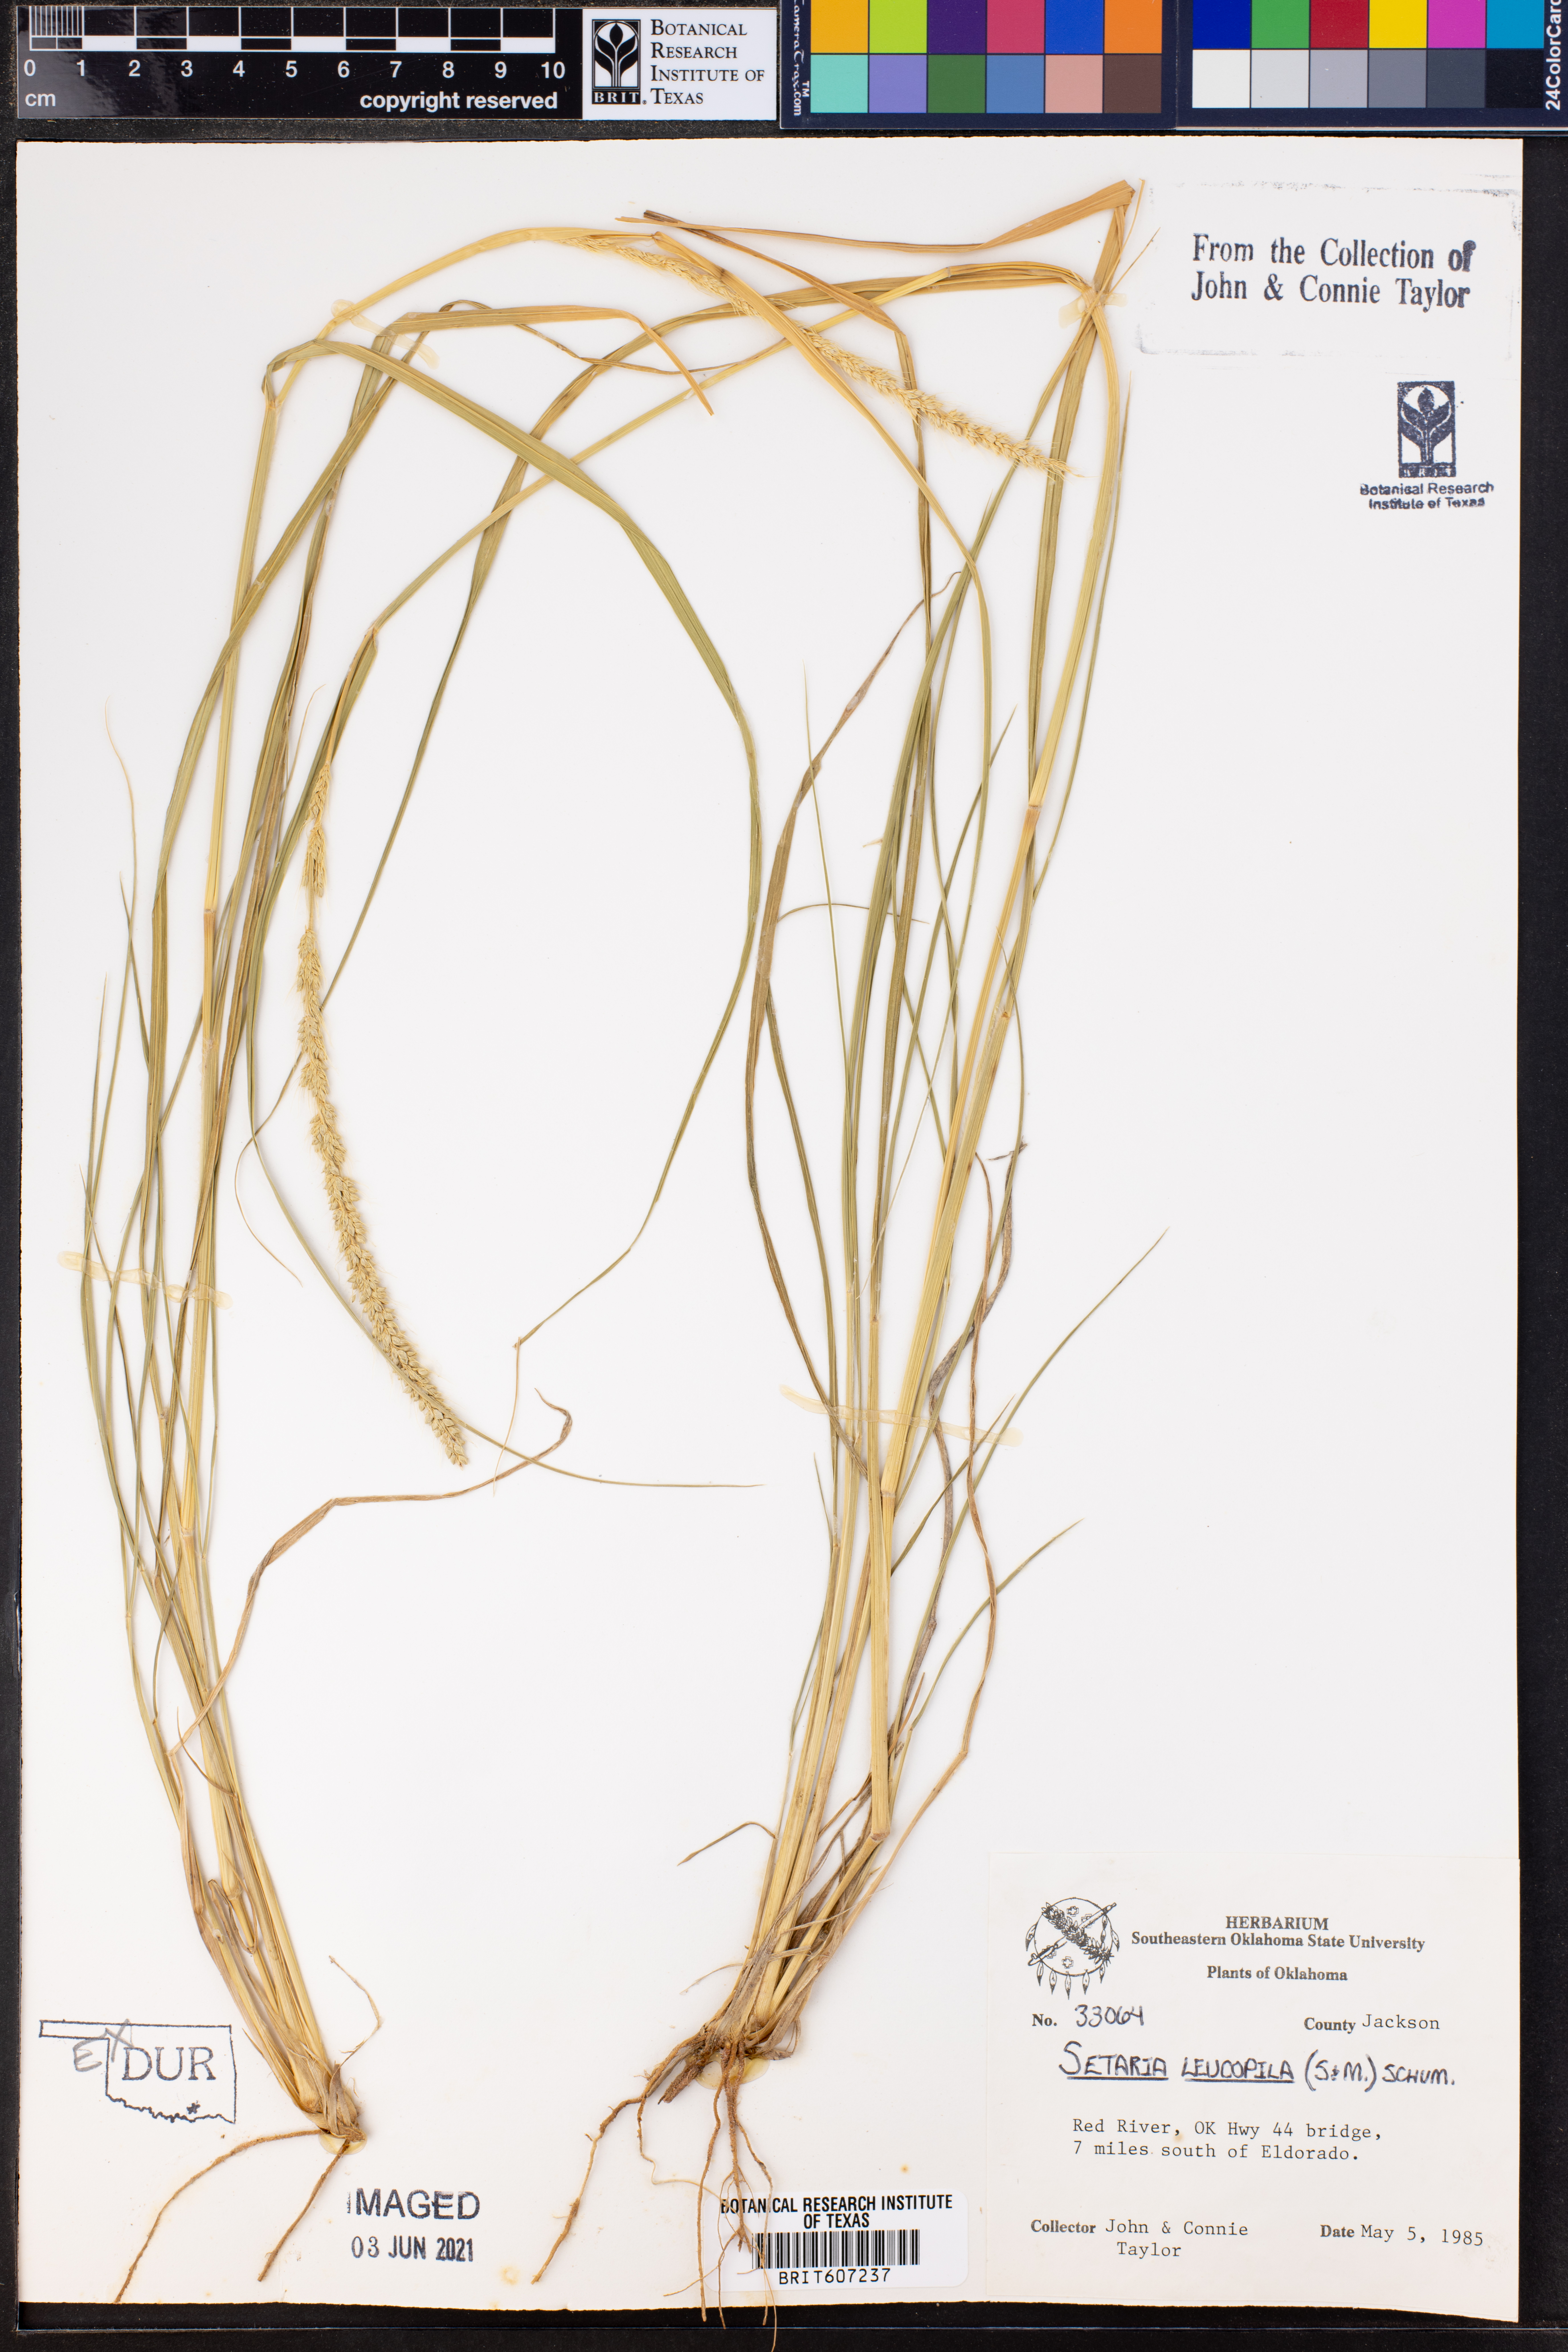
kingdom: Plantae
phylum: Tracheophyta
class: Liliopsida
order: Poales
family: Poaceae
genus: Setaria
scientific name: Setaria leucopila
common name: Plains bristle grass
